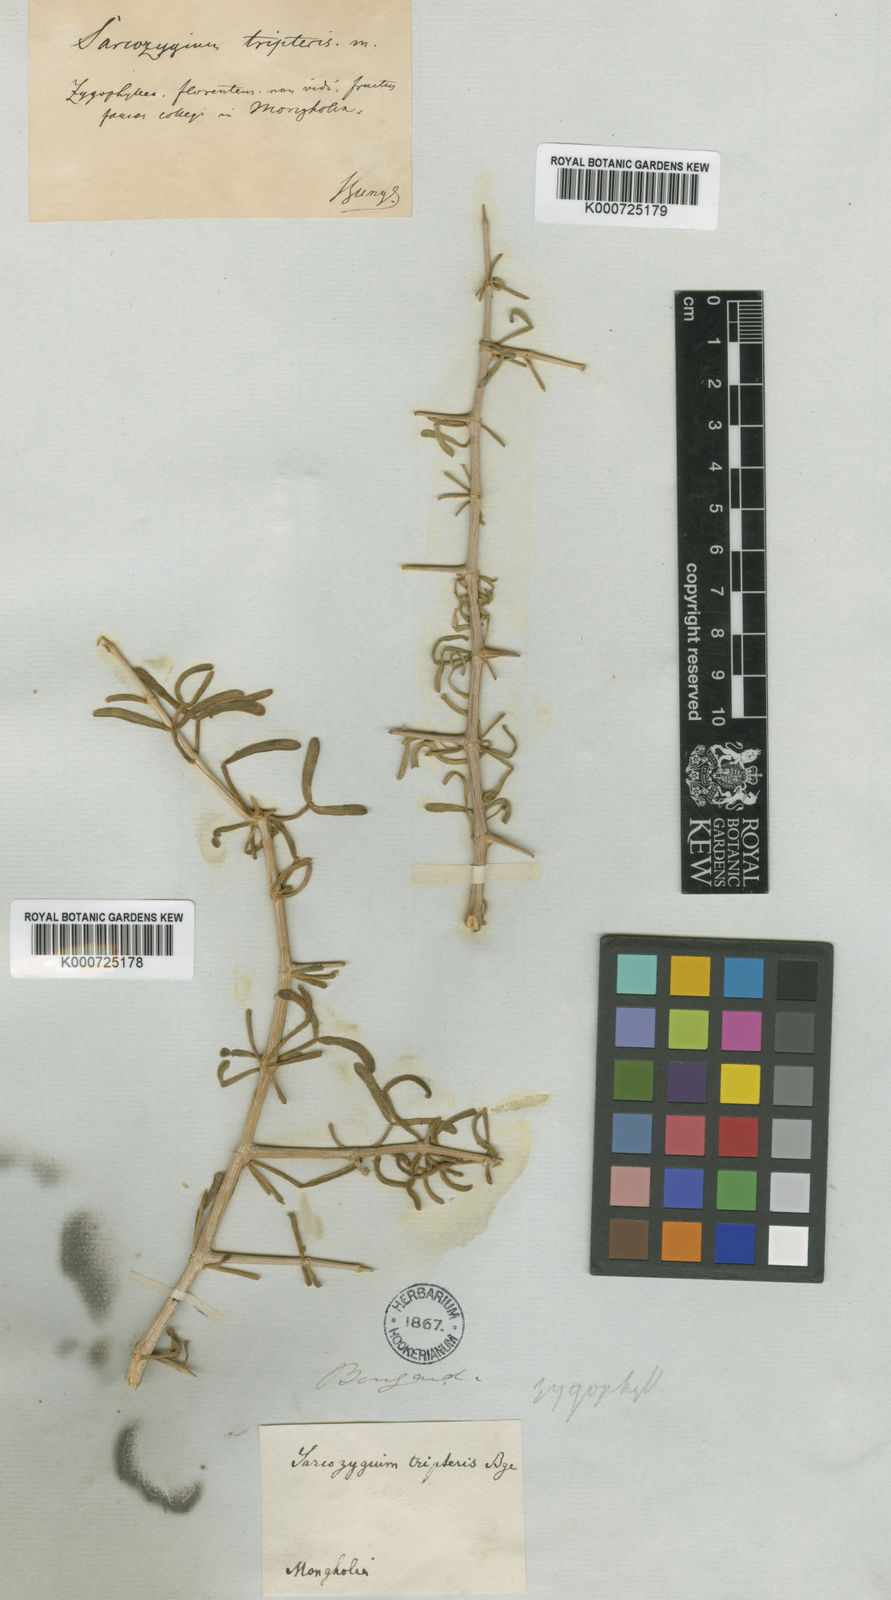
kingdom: Plantae
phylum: Tracheophyta
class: Magnoliopsida
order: Zygophyllales
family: Zygophyllaceae
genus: Zygophyllum
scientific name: Zygophyllum
